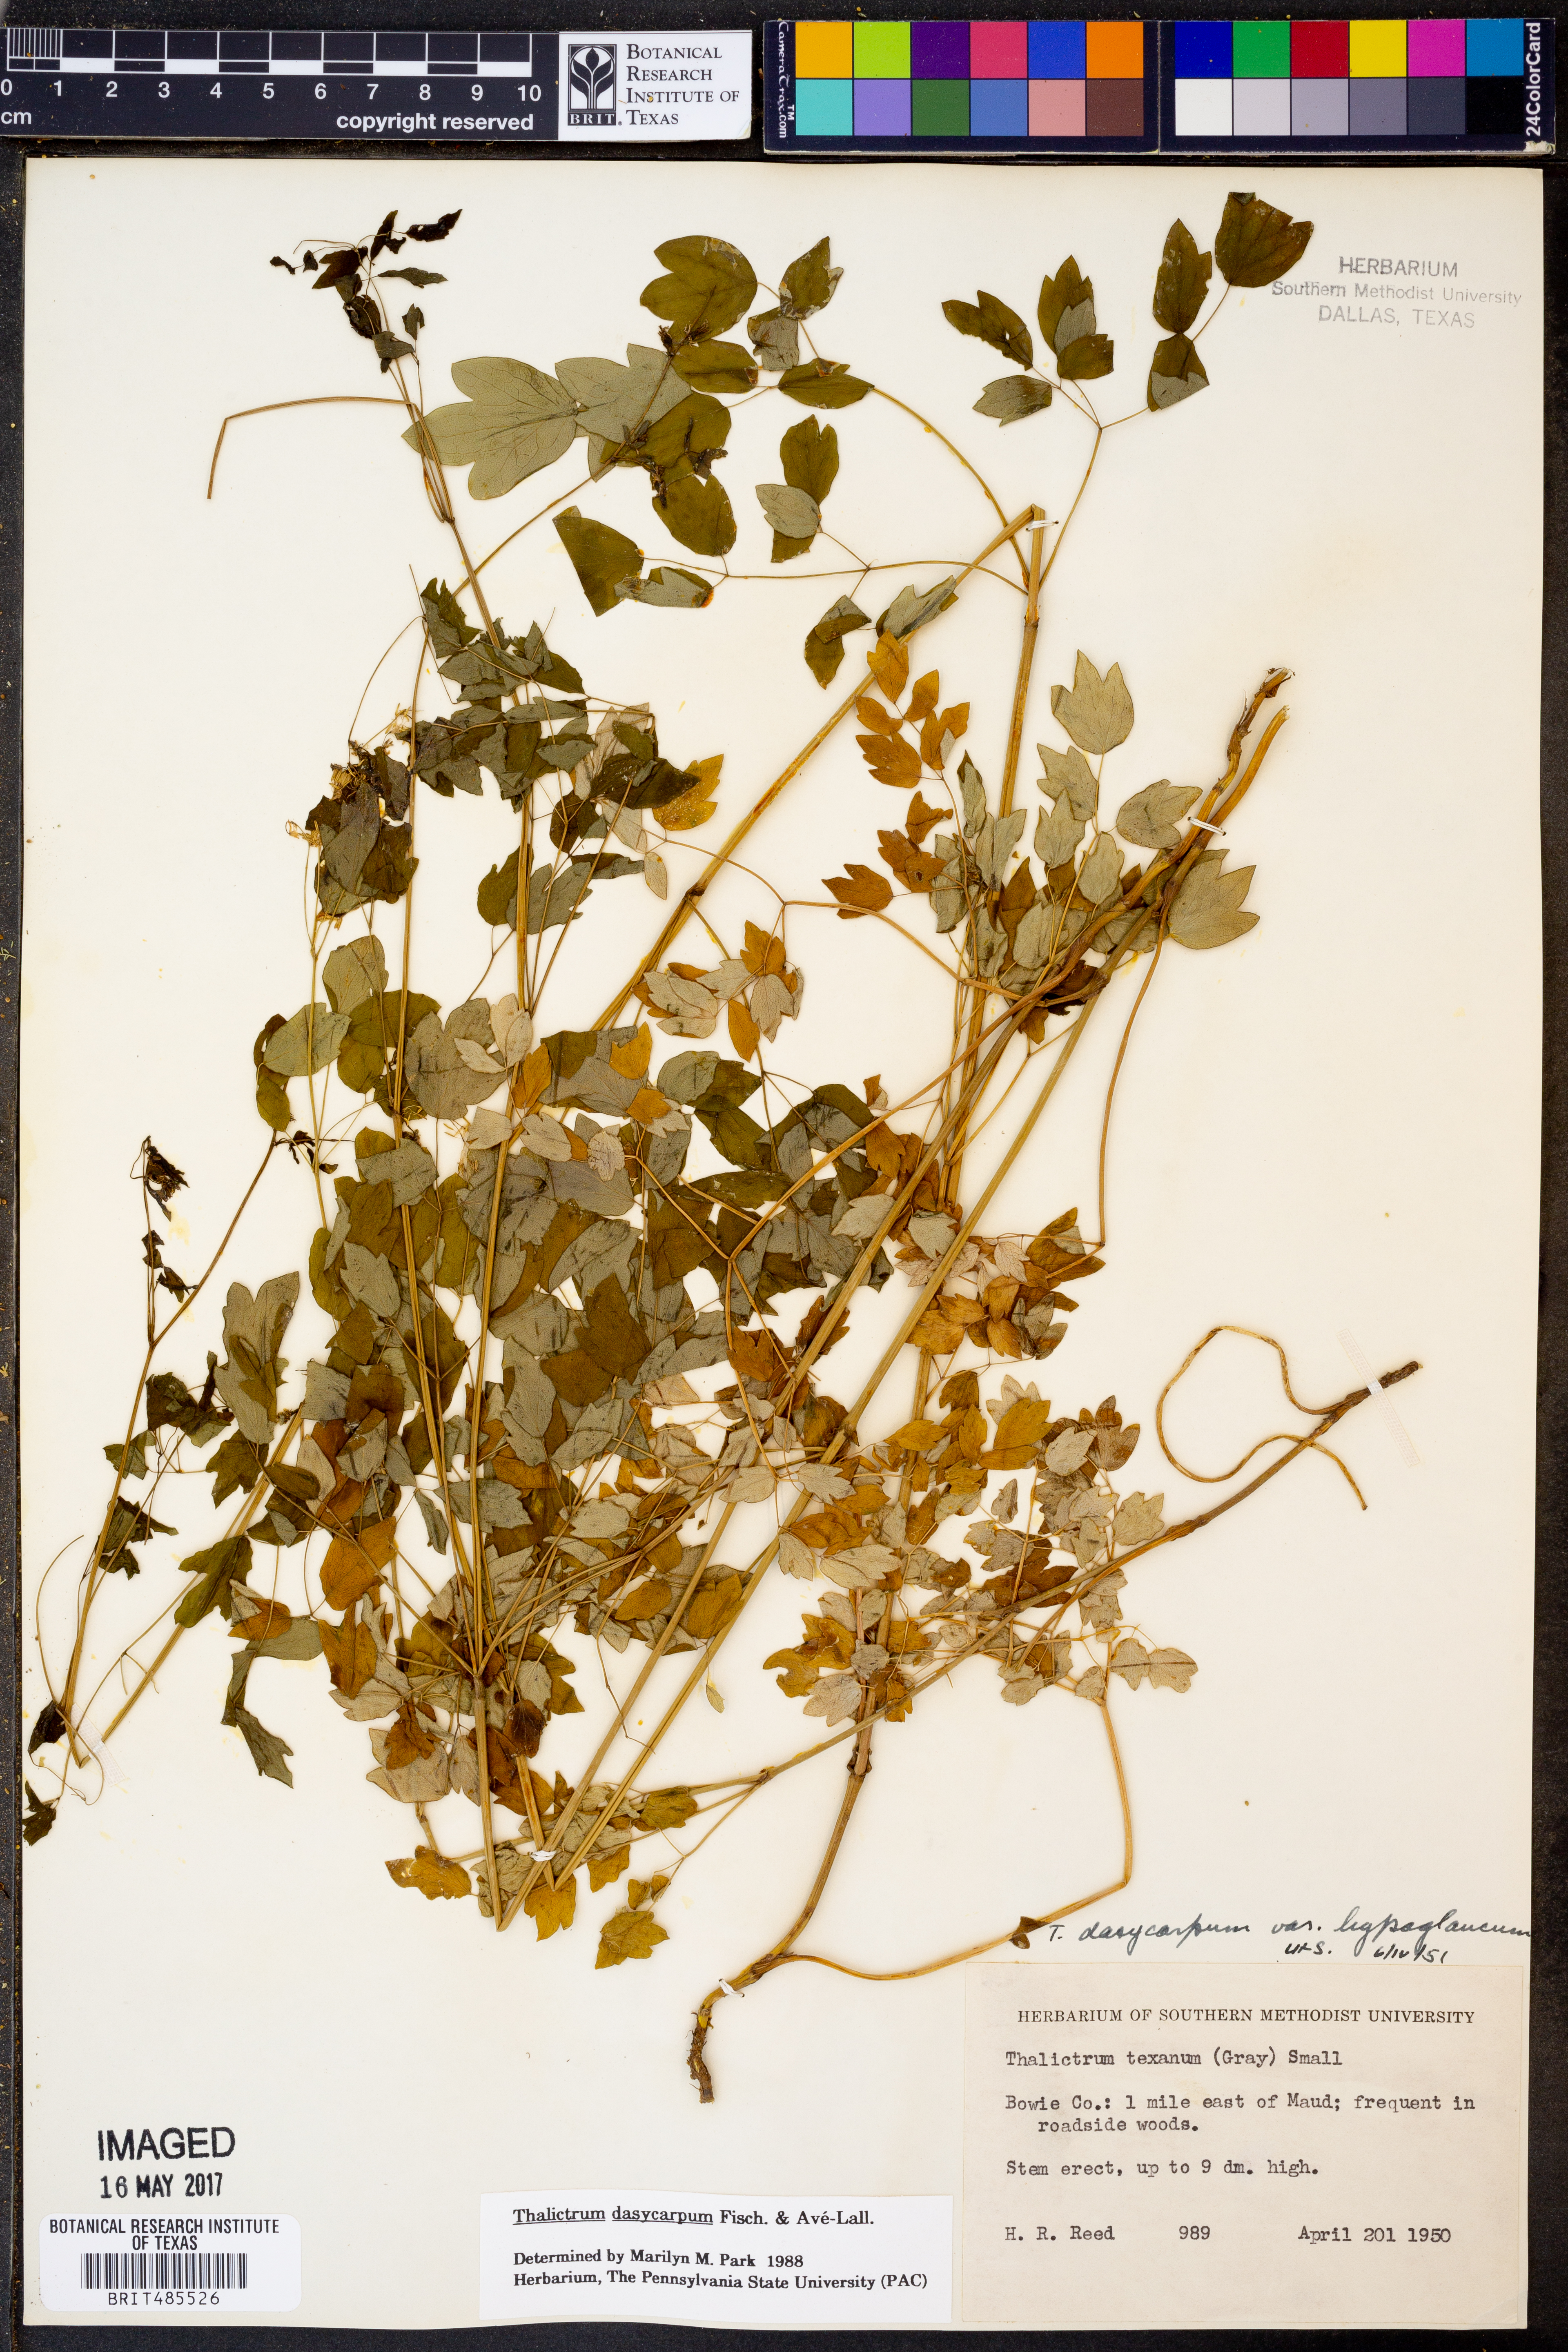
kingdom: Plantae
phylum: Tracheophyta
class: Magnoliopsida
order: Ranunculales
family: Ranunculaceae
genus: Thalictrum
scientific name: Thalictrum dasycarpum
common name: Purple meadow-rue
